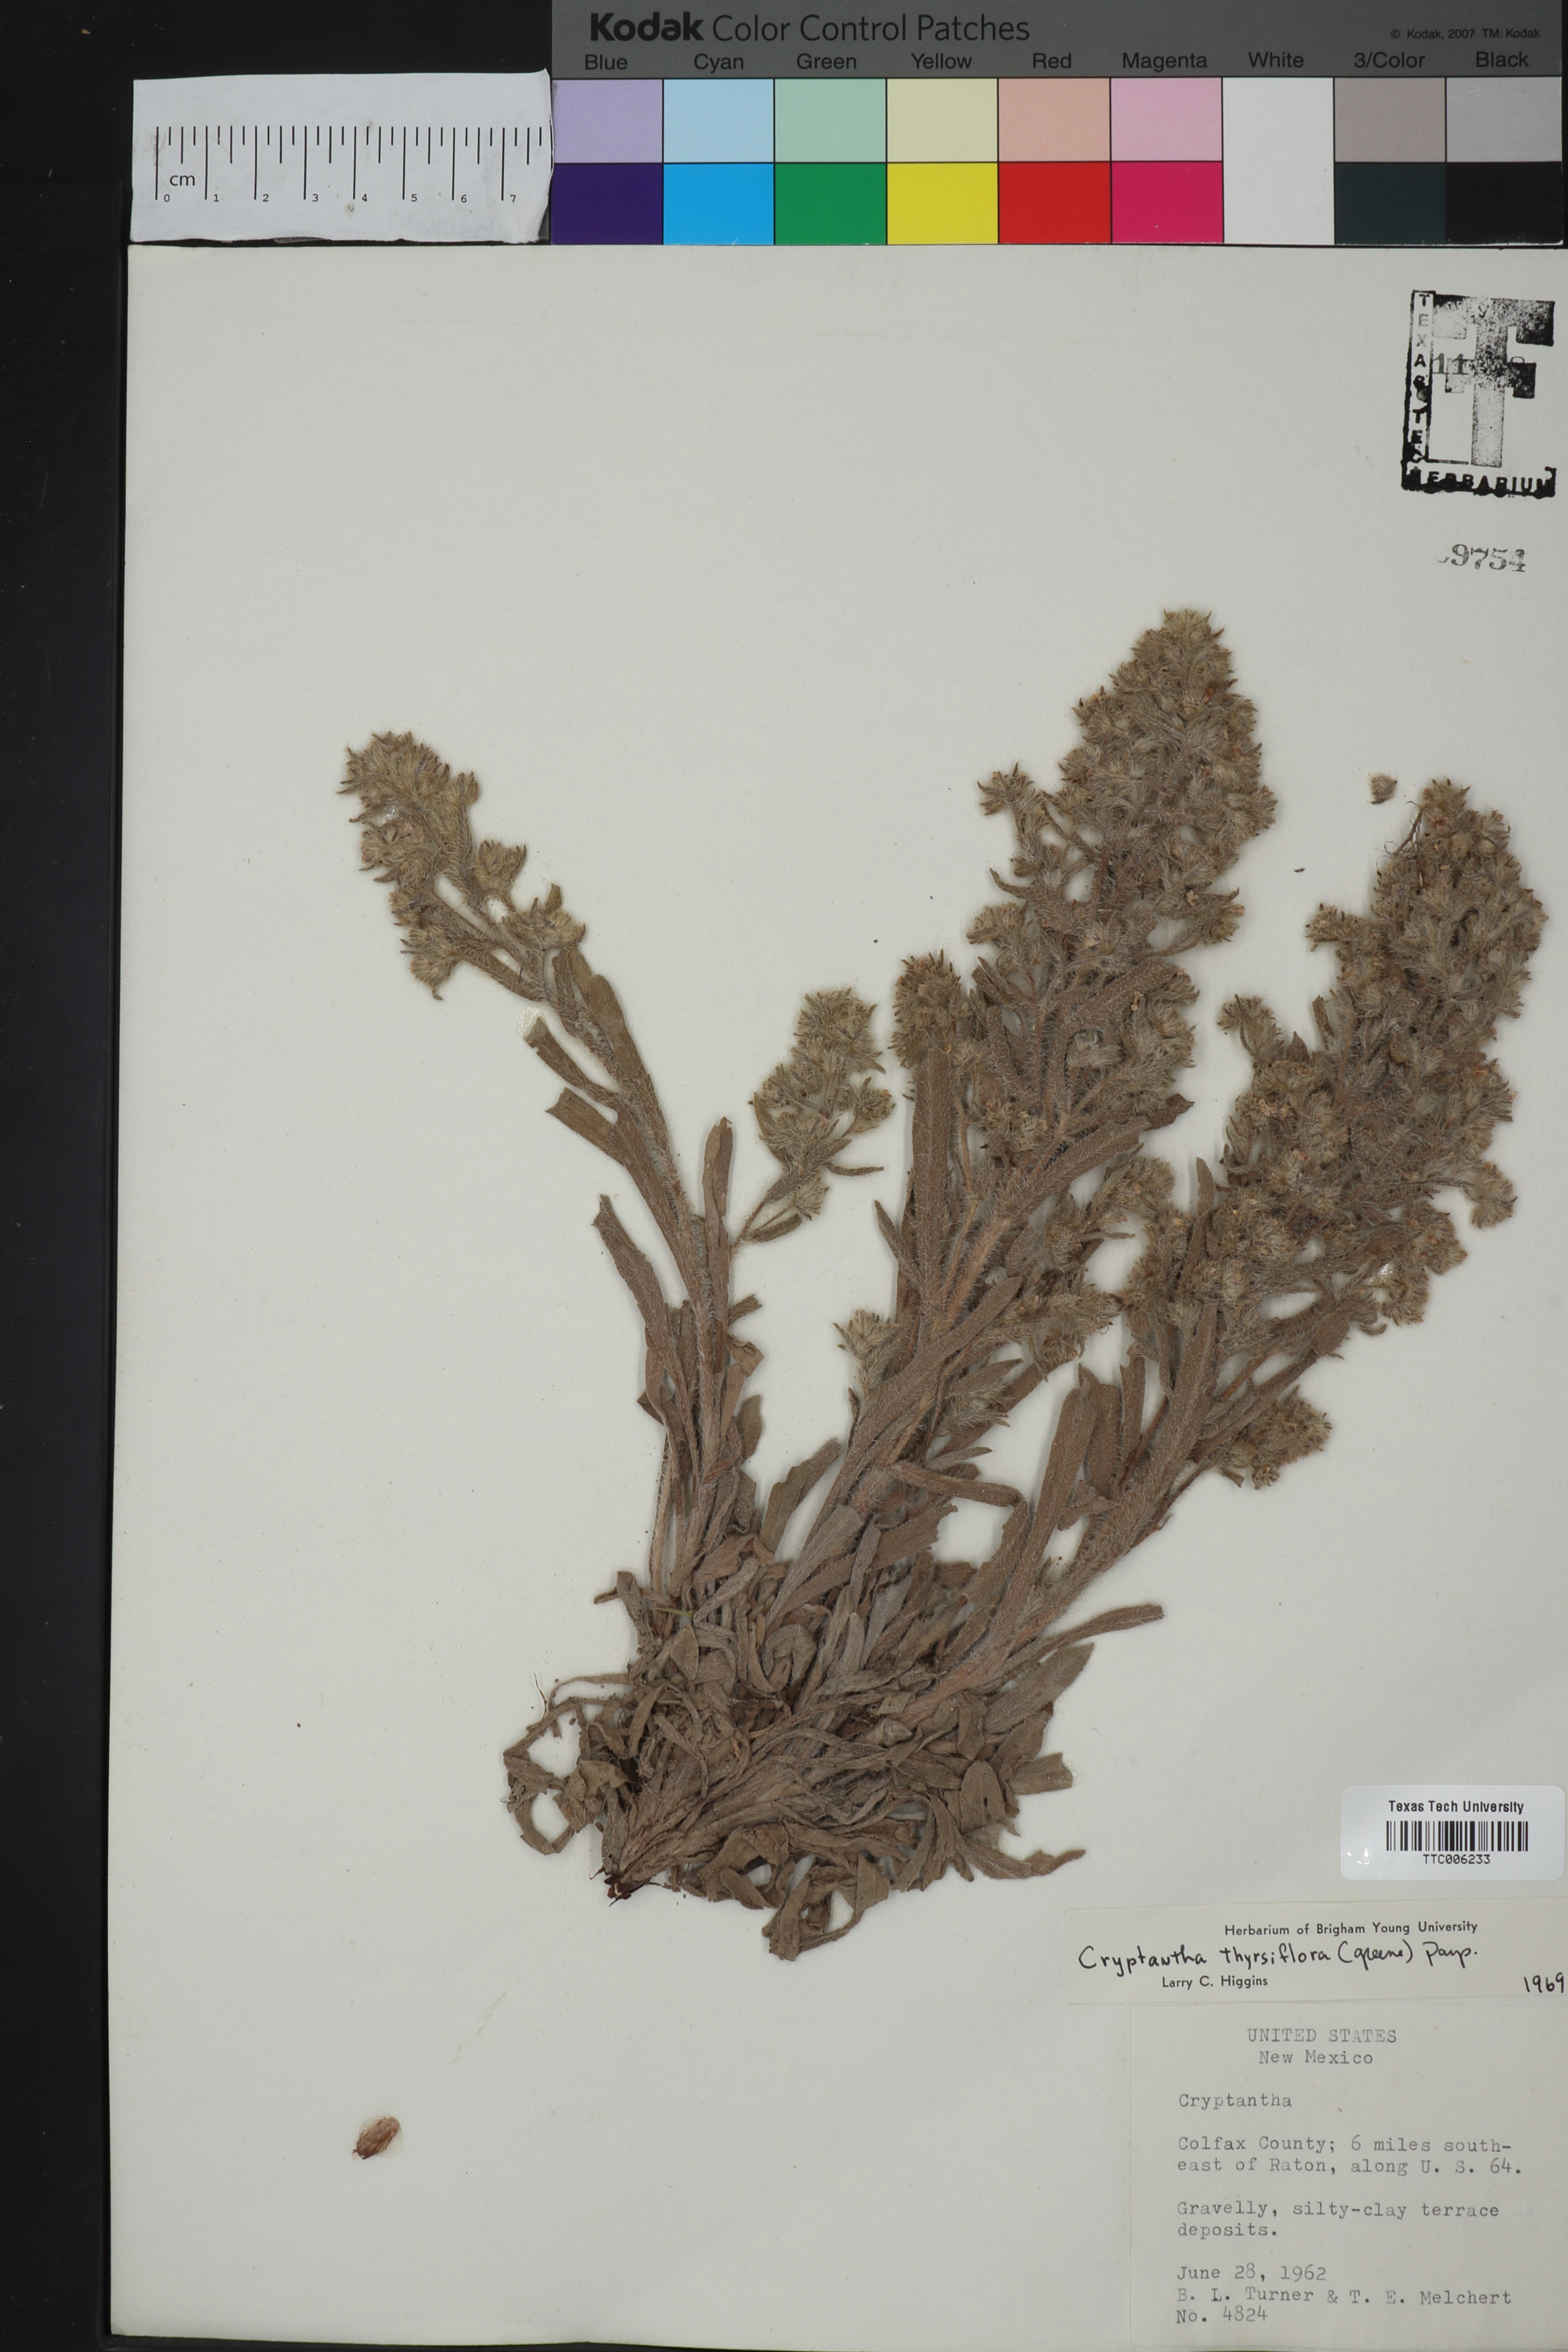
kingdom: Plantae
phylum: Tracheophyta
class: Magnoliopsida
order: Boraginales
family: Boraginaceae
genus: Oreocarya
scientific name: Oreocarya thyrsiflora
